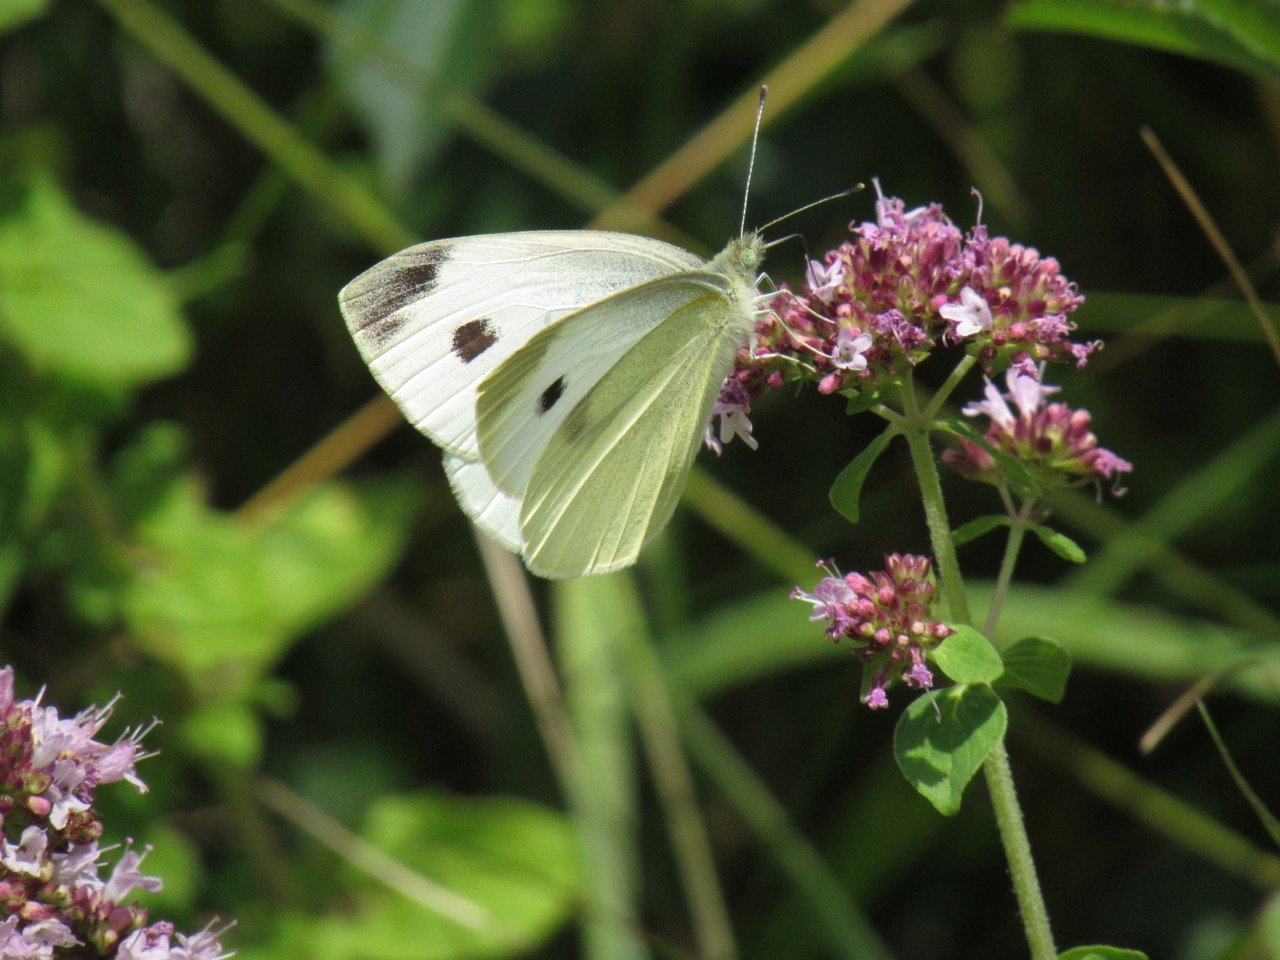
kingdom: Animalia
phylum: Arthropoda
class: Insecta
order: Lepidoptera
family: Pieridae
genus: Pieris
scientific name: Pieris rapae
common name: Cabbage White
